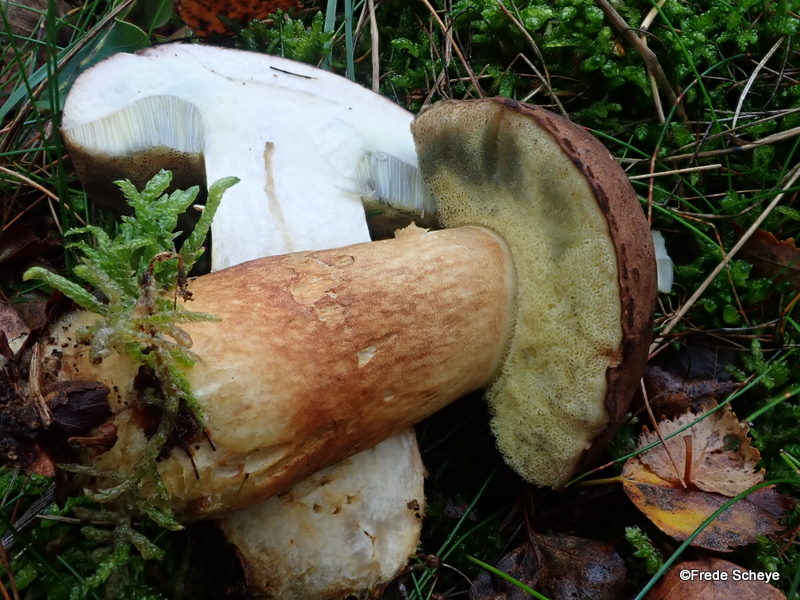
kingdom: Fungi
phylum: Basidiomycota
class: Agaricomycetes
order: Boletales
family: Boletaceae
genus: Imleria
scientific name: Imleria badia
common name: brunstokket rørhat
